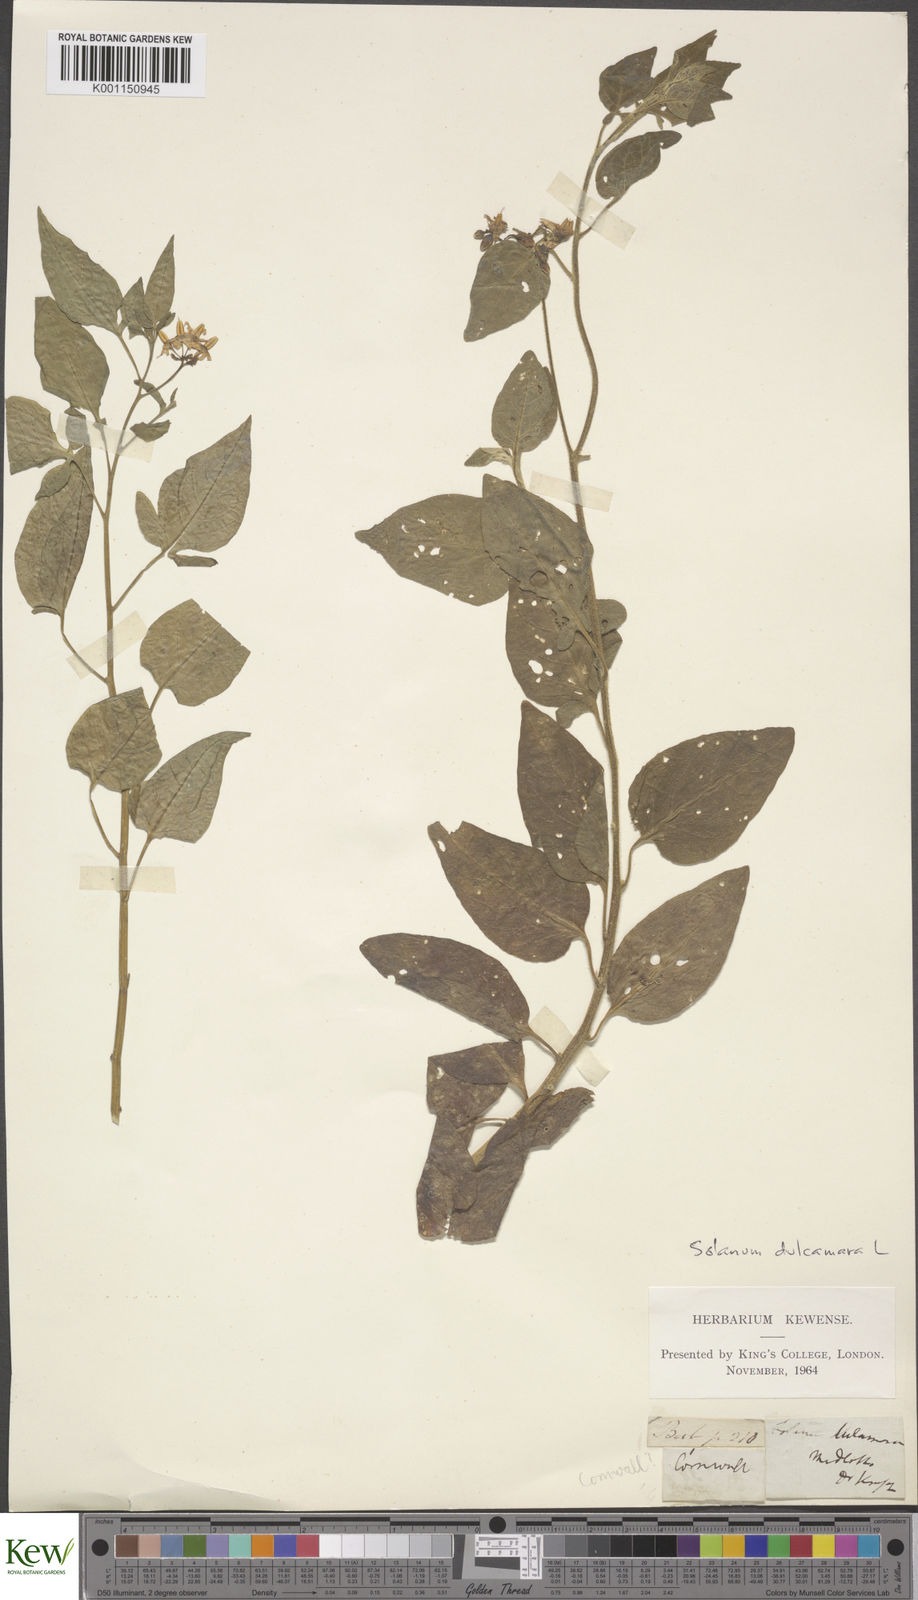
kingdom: Plantae
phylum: Tracheophyta
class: Magnoliopsida
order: Solanales
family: Solanaceae
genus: Solanum
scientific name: Solanum dulcamara
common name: Climbing nightshade
